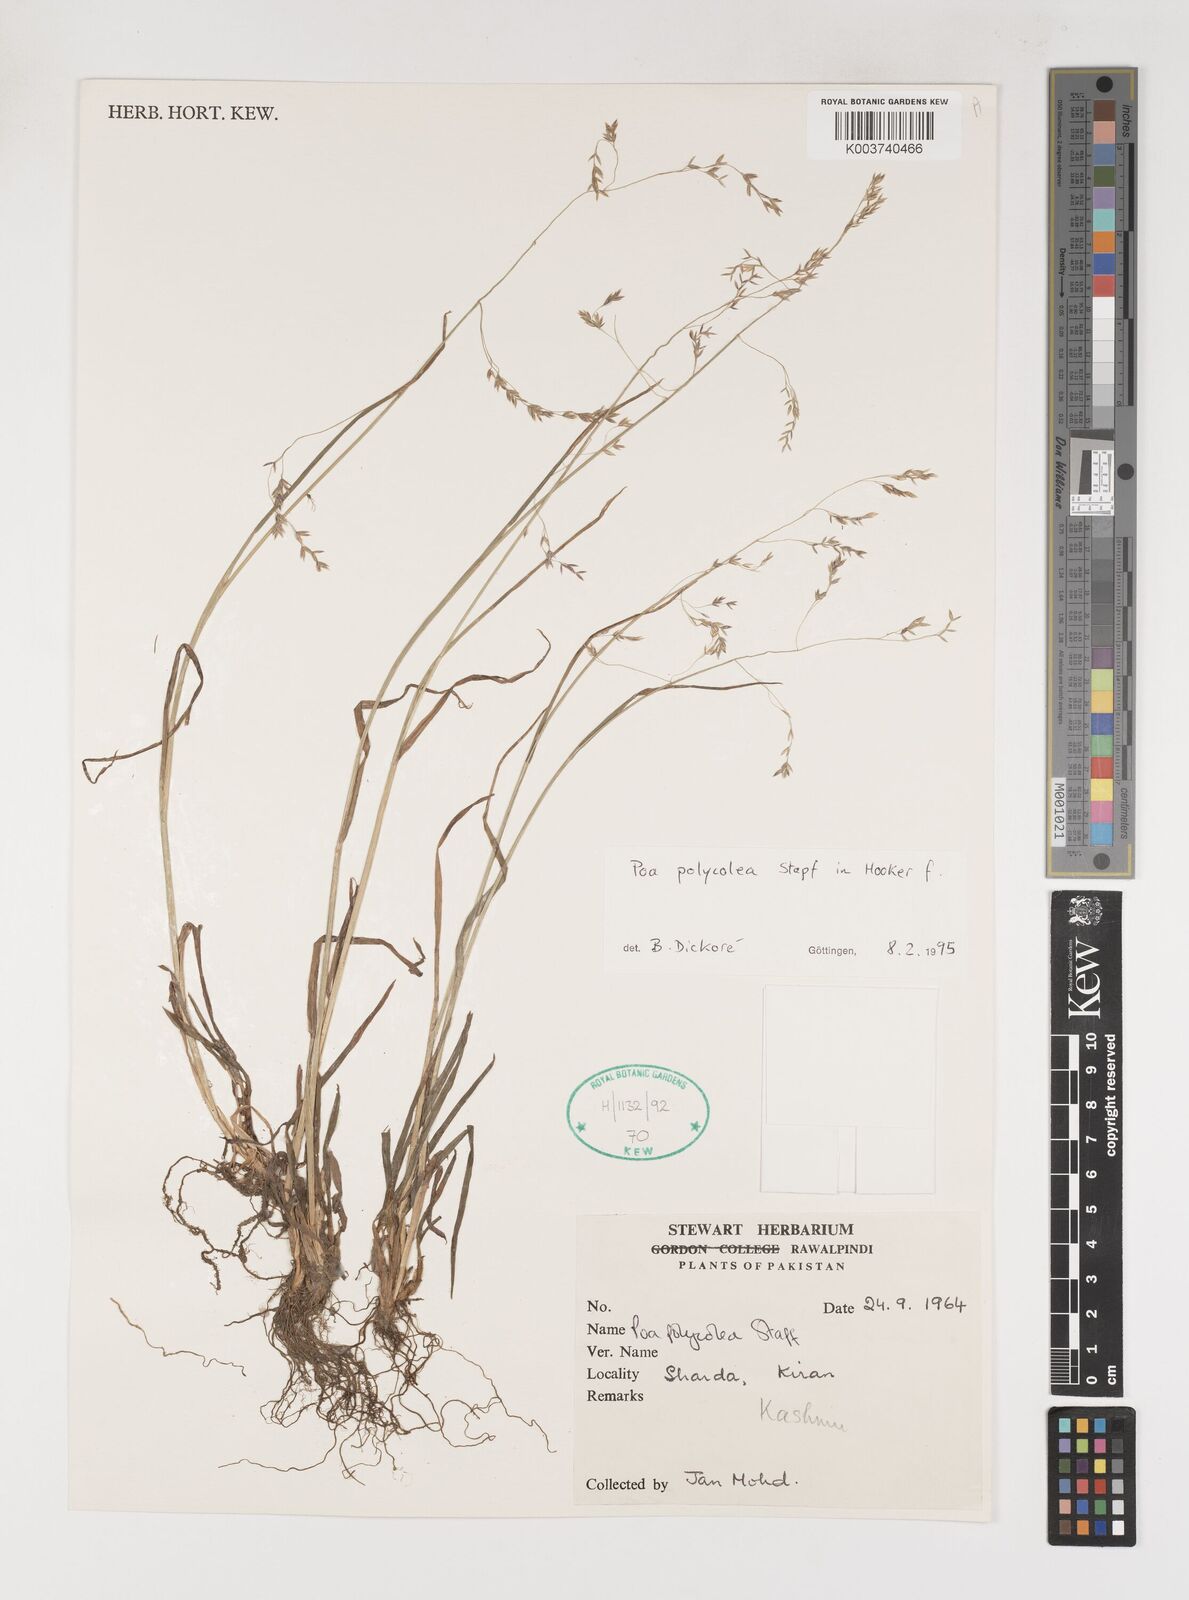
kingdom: Plantae
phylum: Tracheophyta
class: Liliopsida
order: Poales
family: Poaceae
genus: Poa
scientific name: Poa polycolea
